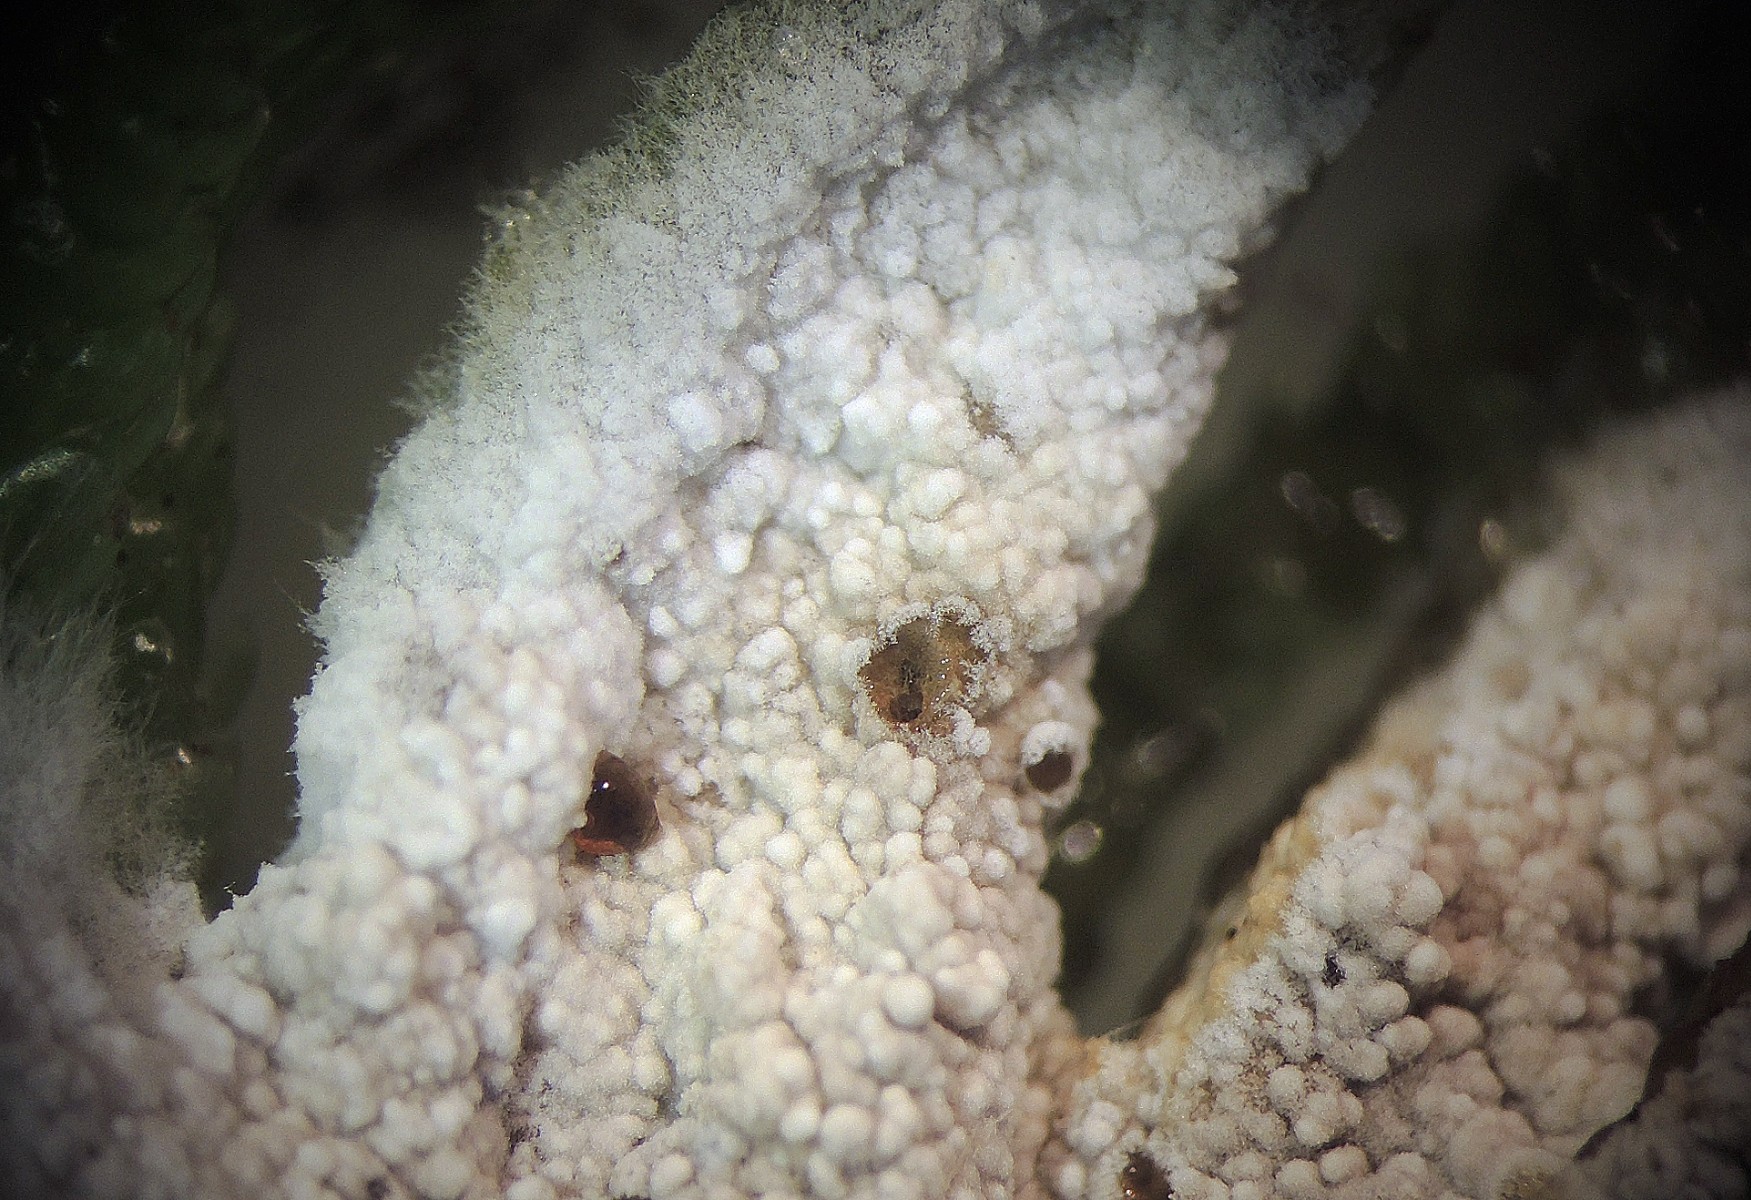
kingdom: Fungi
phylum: Basidiomycota
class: Agaricomycetes
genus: Trechinothus
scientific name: Trechinothus smardae
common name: krathinde
